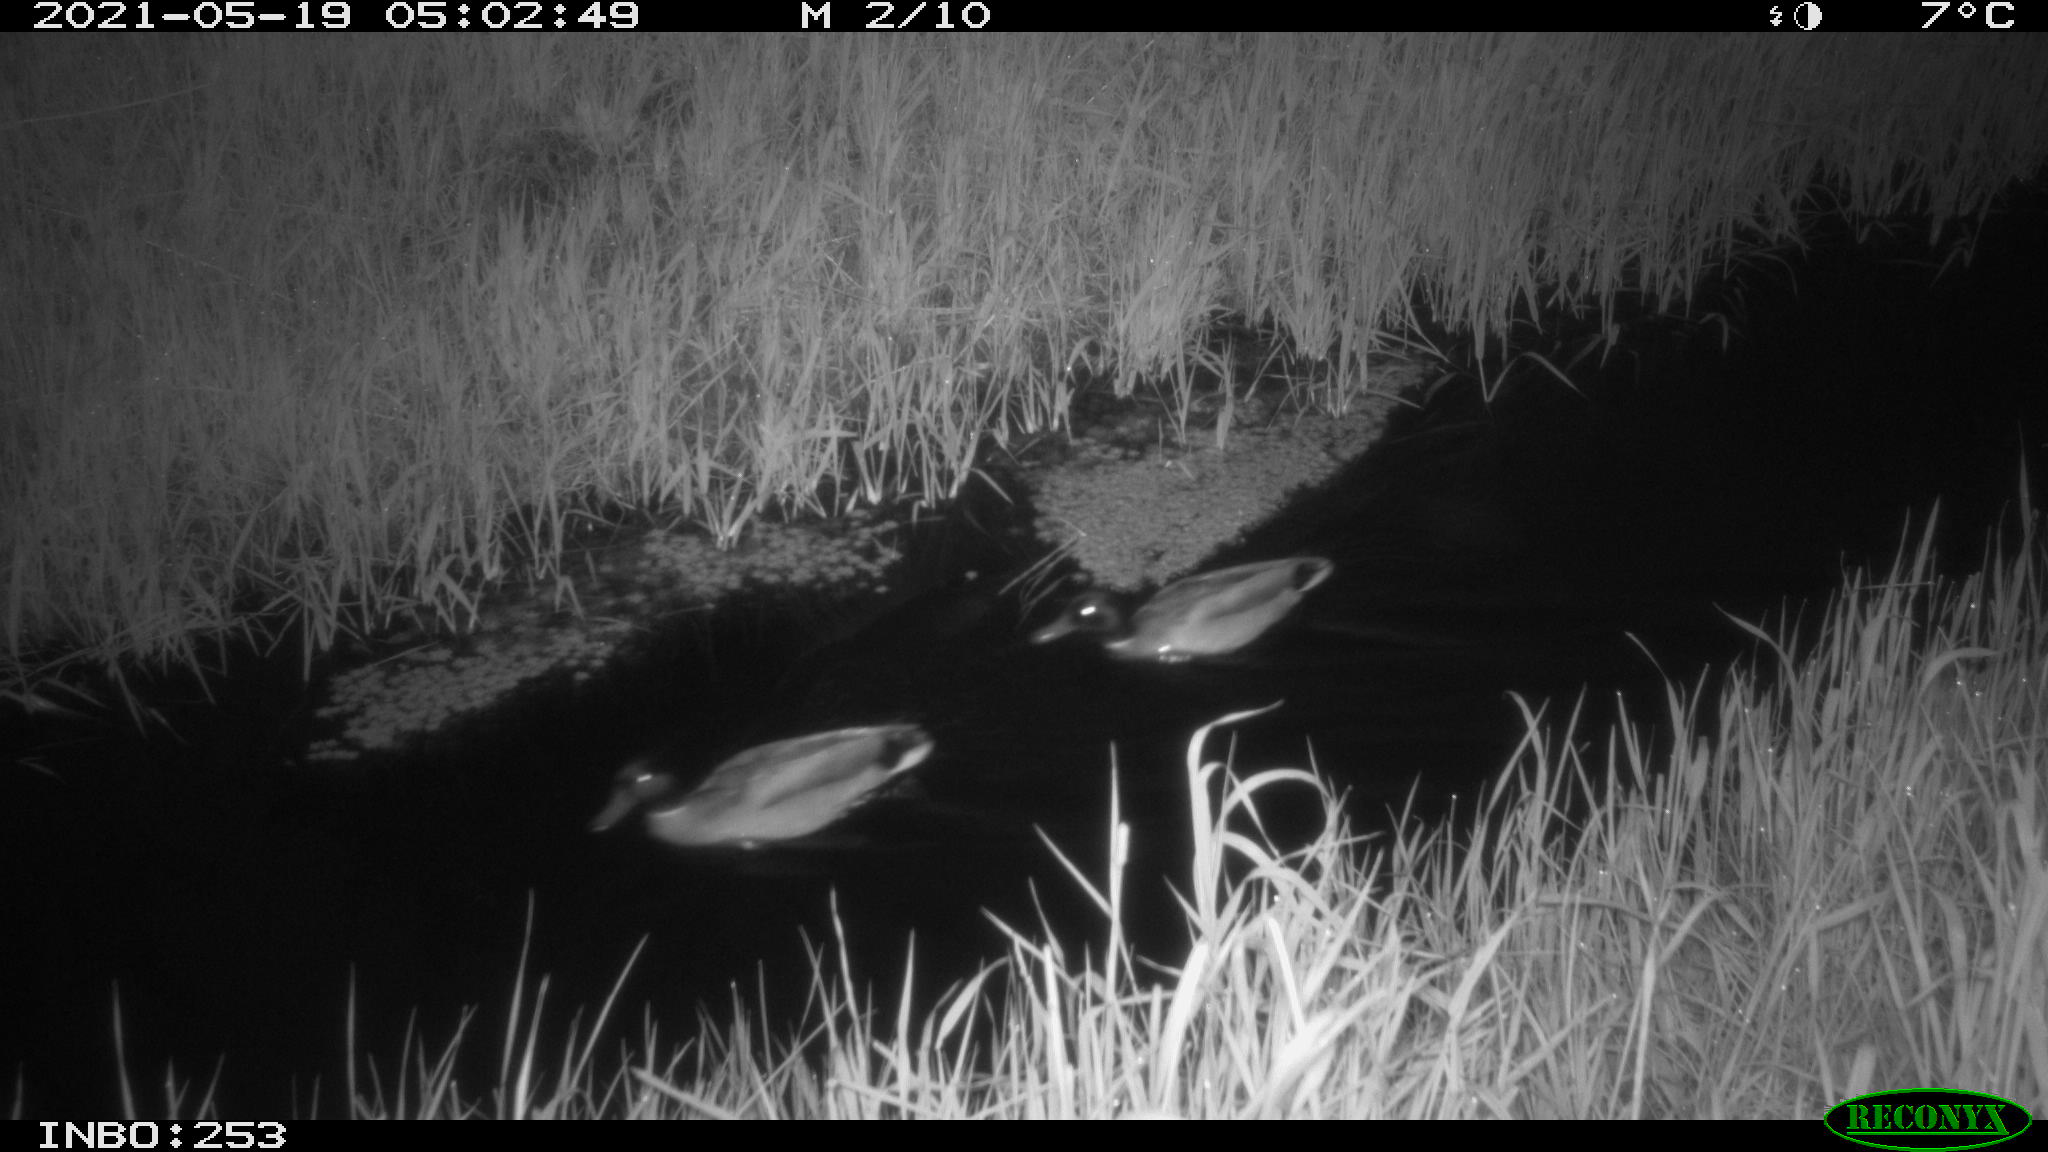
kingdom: Animalia
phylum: Chordata
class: Aves
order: Anseriformes
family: Anatidae
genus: Anas
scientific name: Anas platyrhynchos
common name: Mallard
